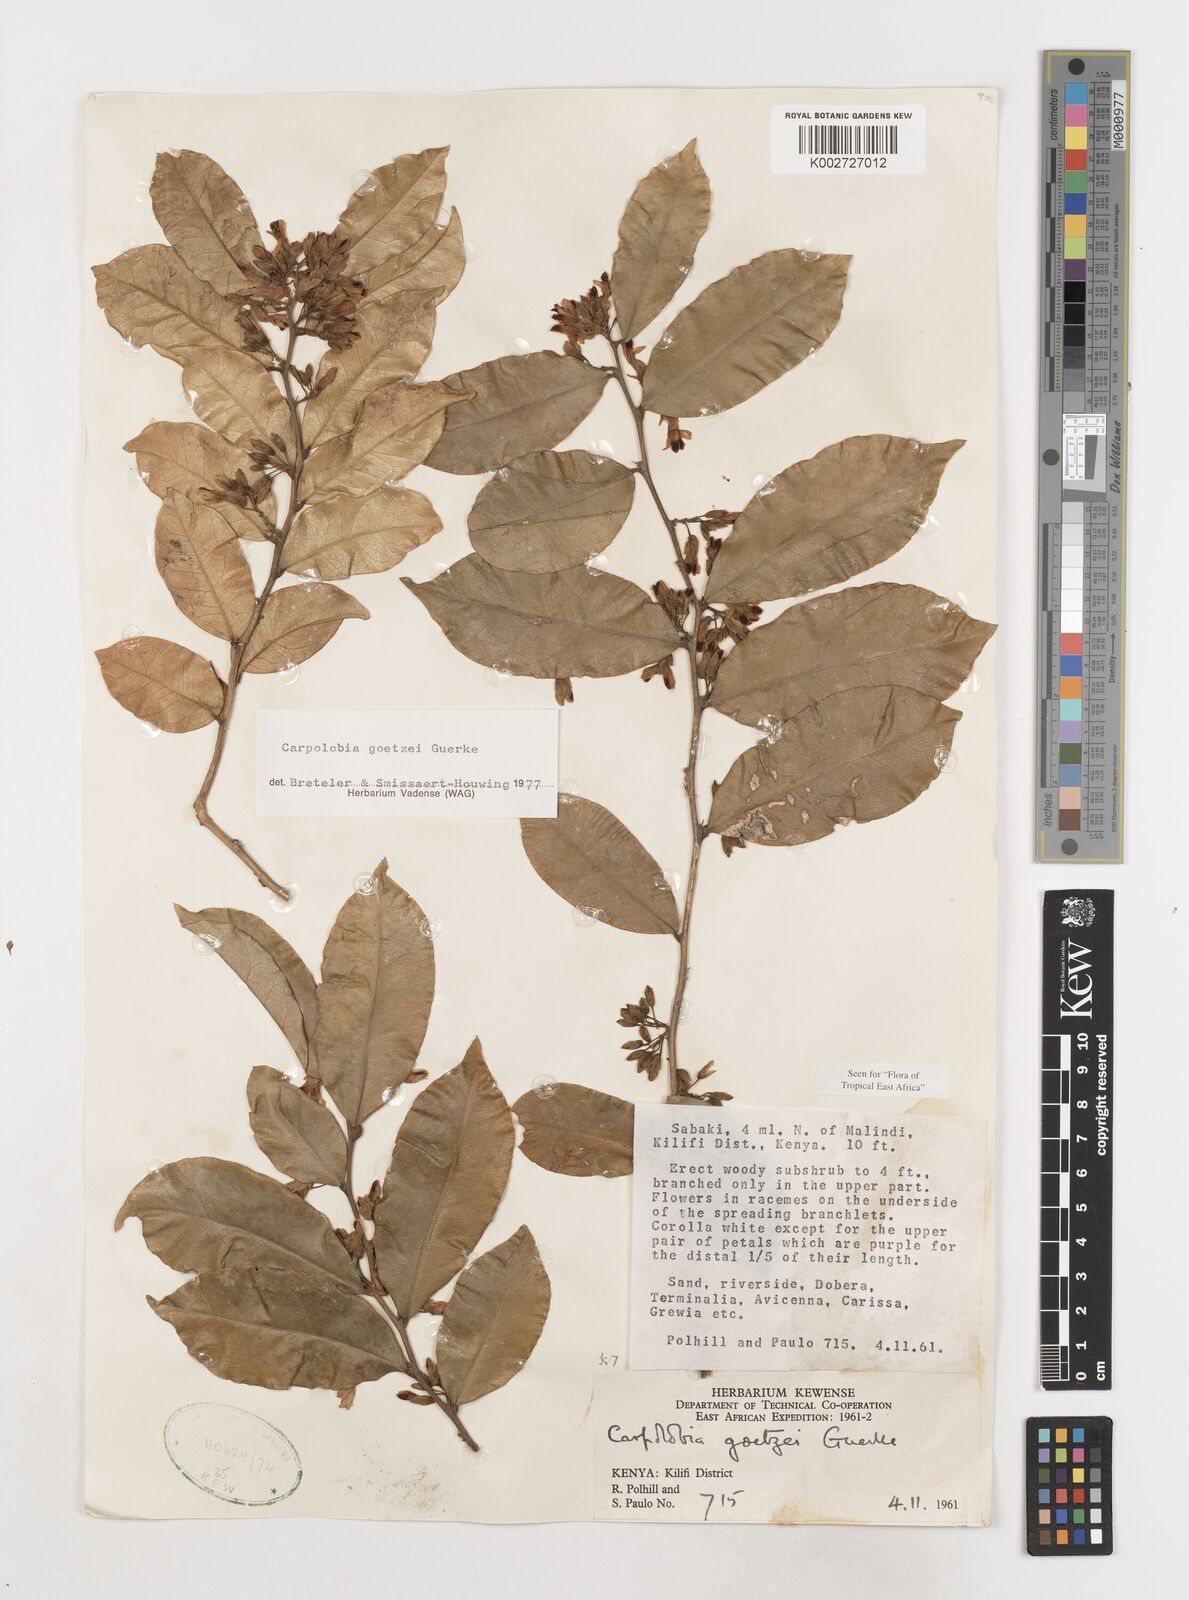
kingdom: Plantae
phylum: Tracheophyta
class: Magnoliopsida
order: Fabales
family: Polygalaceae
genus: Carpolobia
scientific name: Carpolobia goetzei
